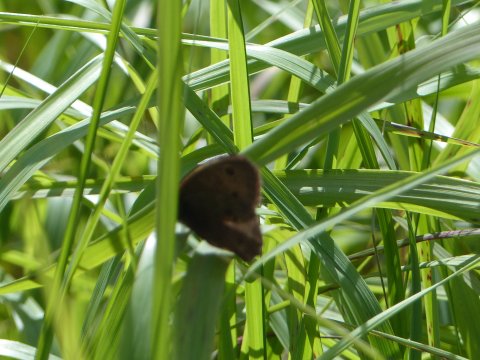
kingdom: Animalia
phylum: Arthropoda
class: Insecta
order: Lepidoptera
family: Nymphalidae
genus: Cercyonis
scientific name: Cercyonis
